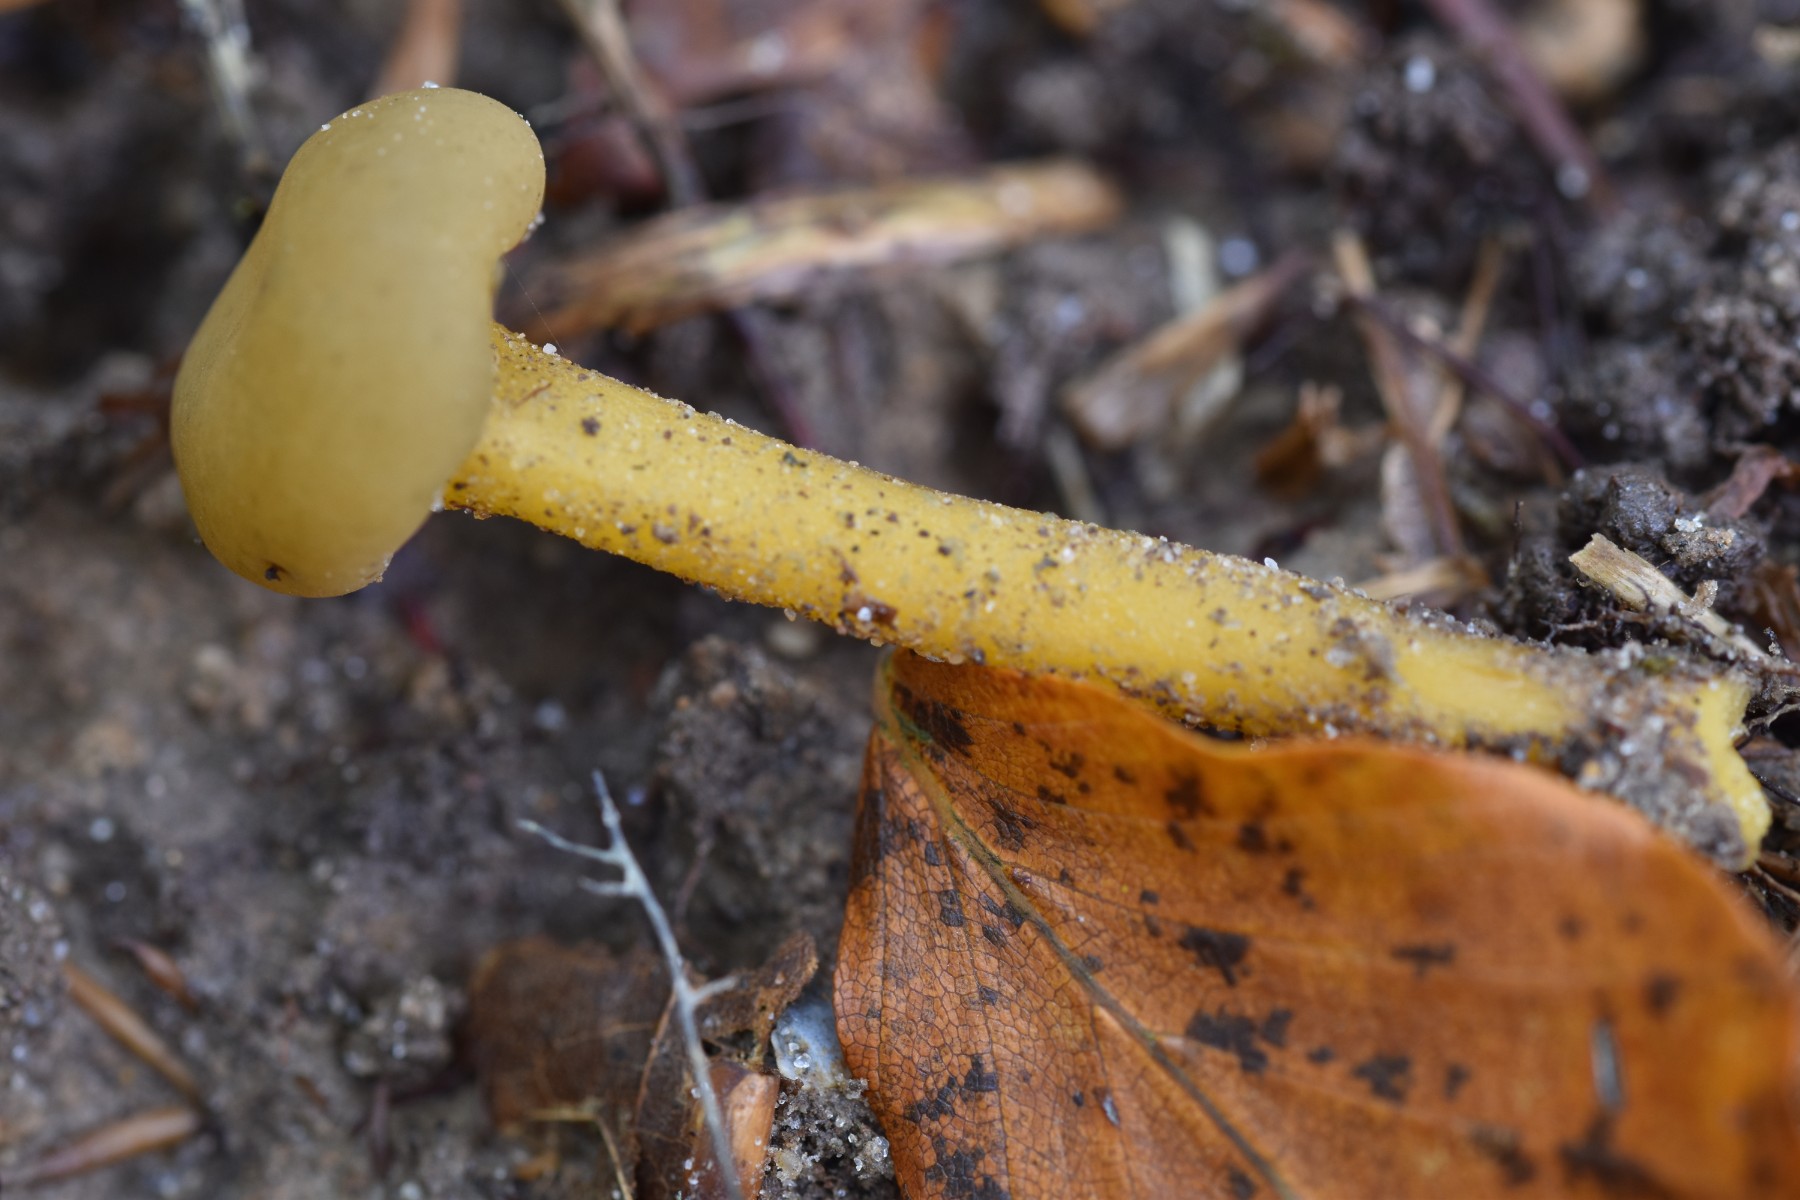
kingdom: Fungi
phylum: Ascomycota
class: Leotiomycetes
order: Leotiales
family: Leotiaceae
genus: Leotia
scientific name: Leotia lubrica
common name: ravsvamp
